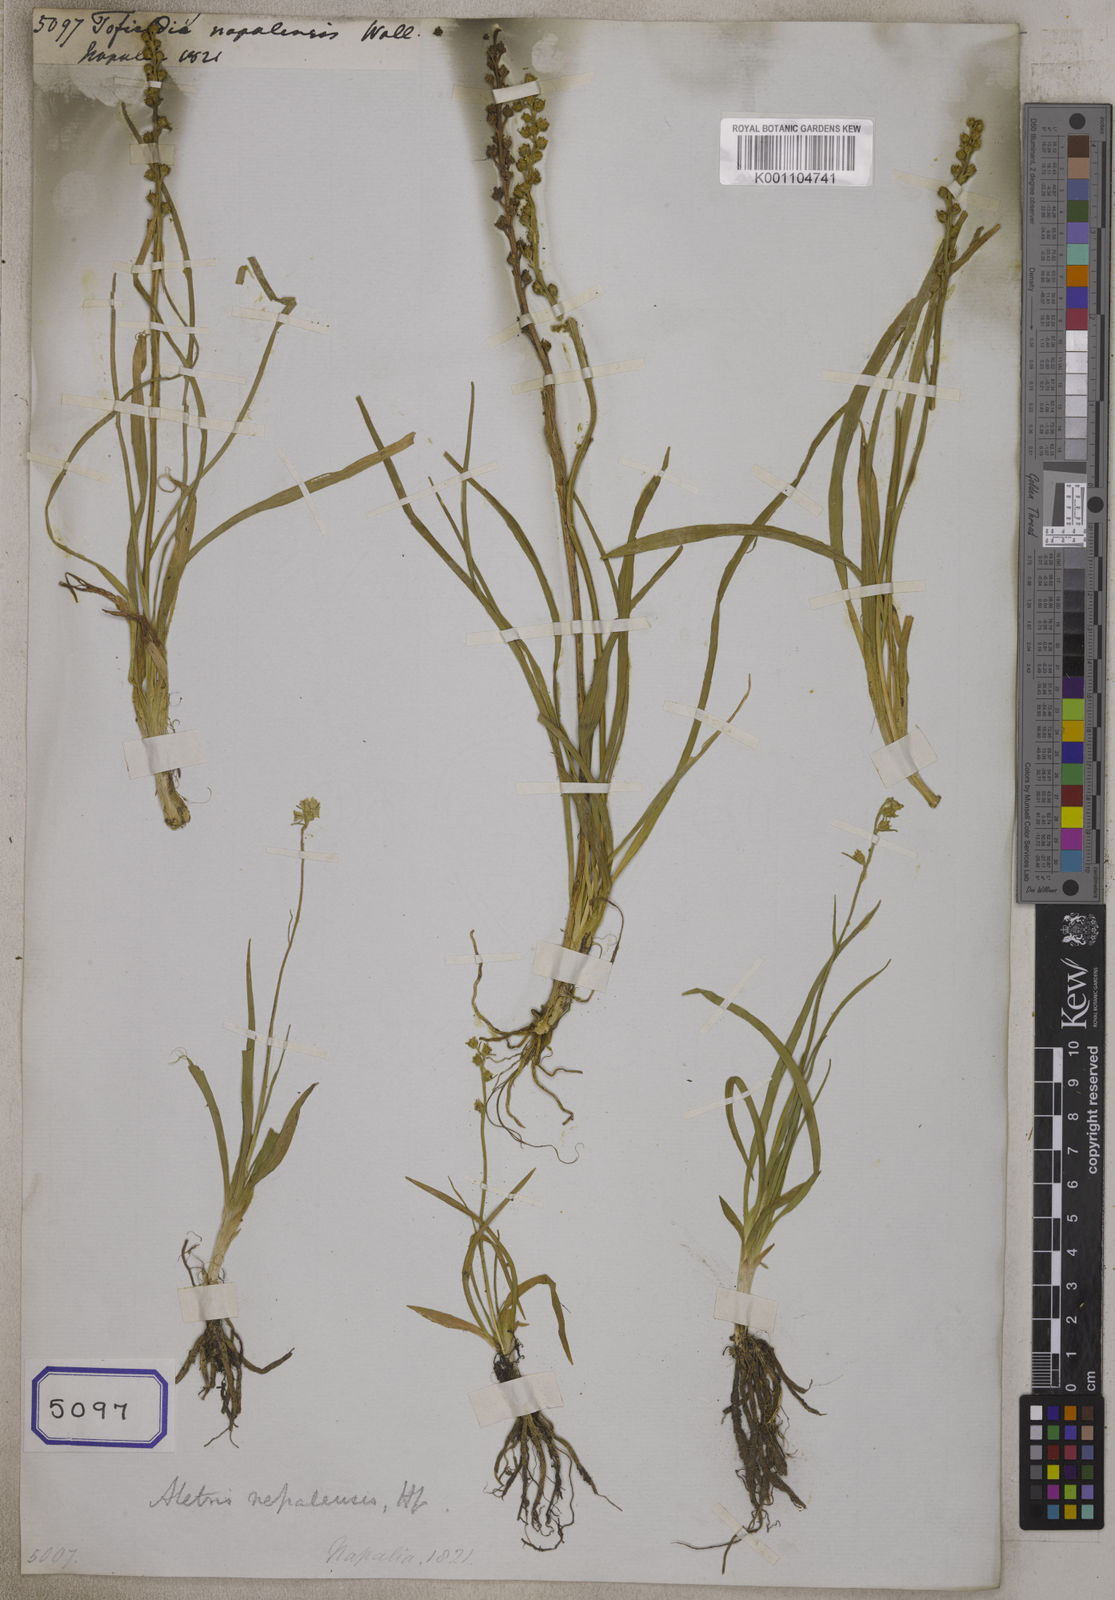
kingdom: Plantae
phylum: Tracheophyta
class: Liliopsida
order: Alismatales
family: Tofieldiaceae
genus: Tofieldia
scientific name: Tofieldia
